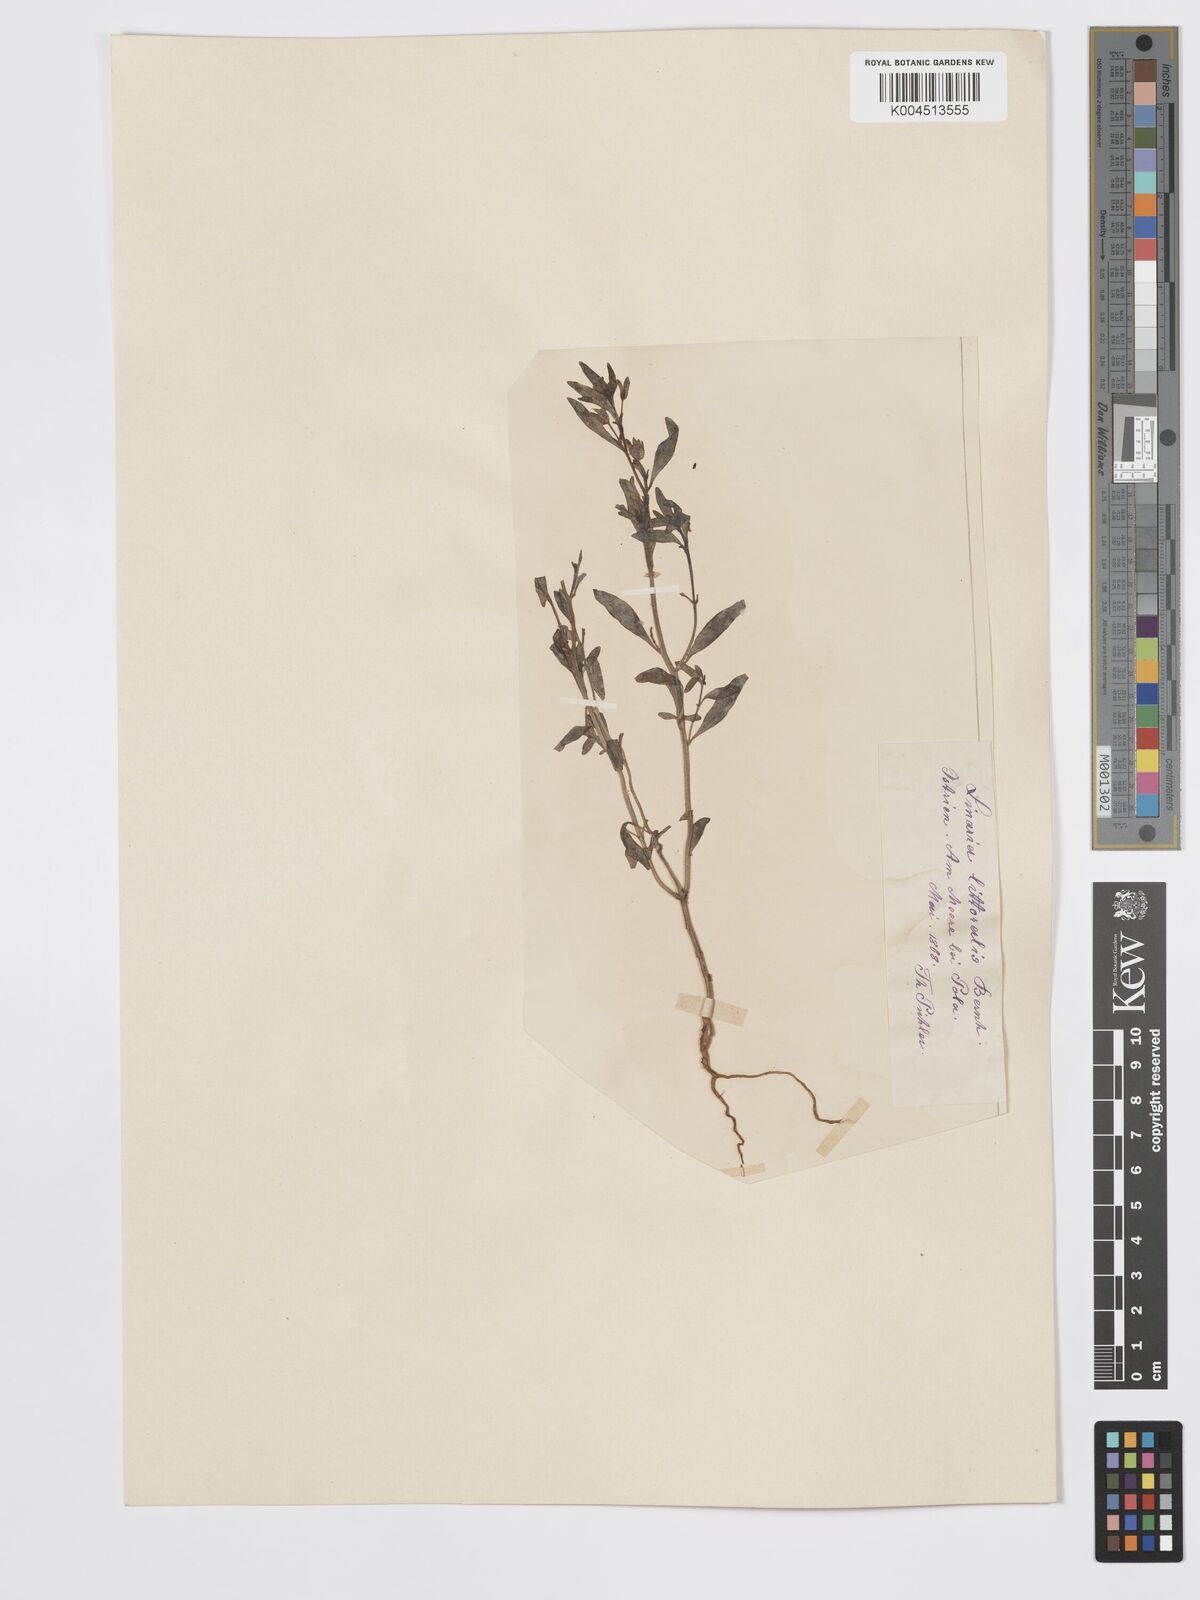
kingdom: Plantae
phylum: Tracheophyta
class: Magnoliopsida
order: Lamiales
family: Plantaginaceae
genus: Chaenorhinum
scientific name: Chaenorhinum minus
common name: Dwarf snapdragon
